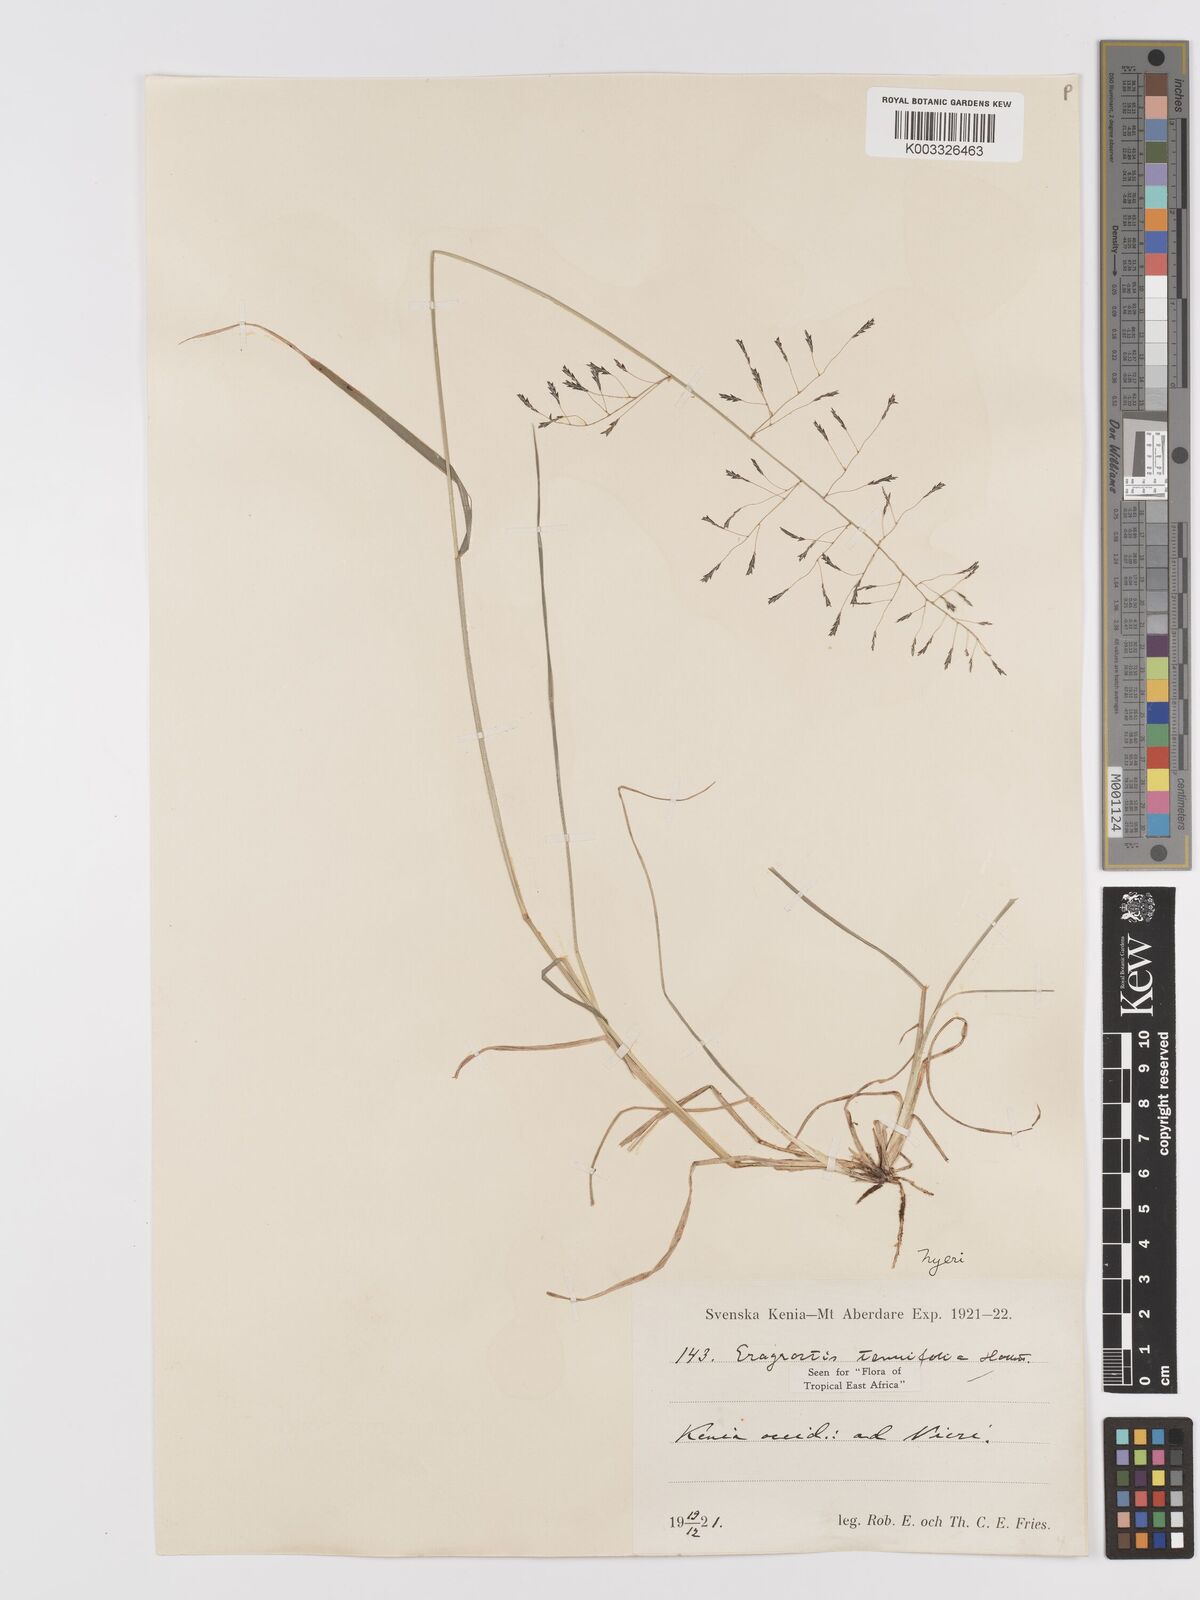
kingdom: Plantae
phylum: Tracheophyta
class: Liliopsida
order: Poales
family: Poaceae
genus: Eragrostis
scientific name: Eragrostis tenuifolia
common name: Elastic grass
